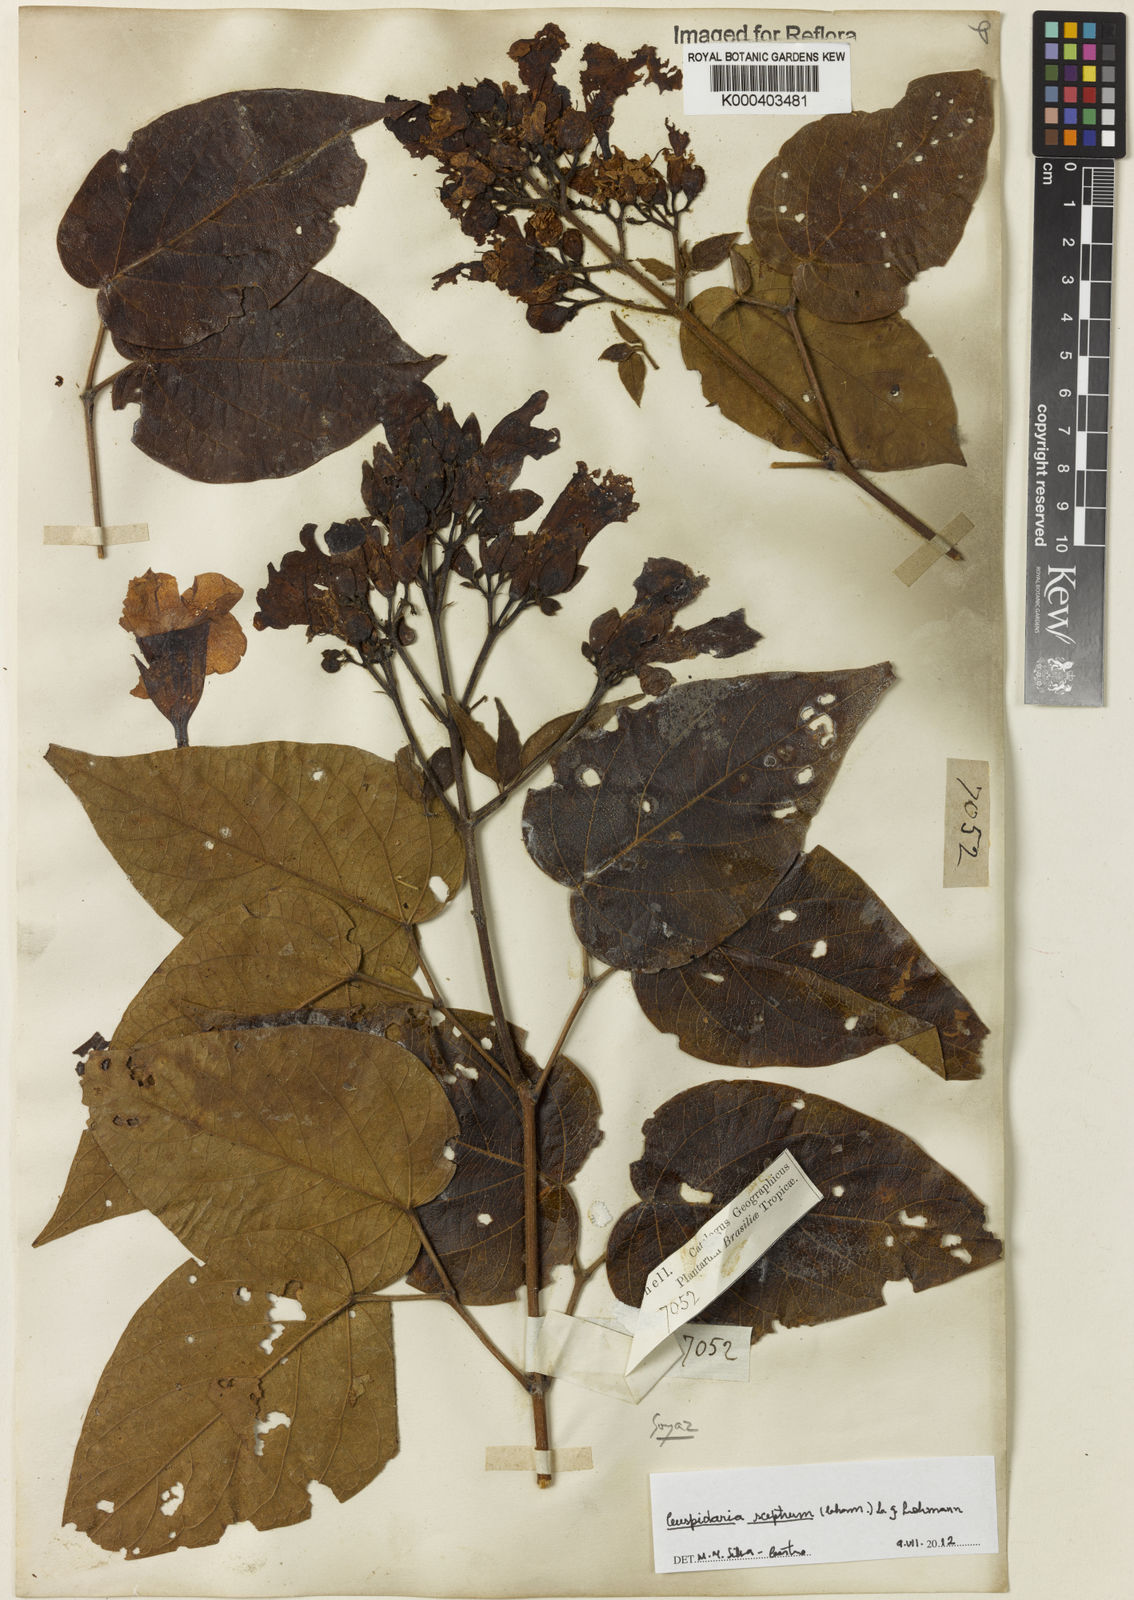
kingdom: Plantae
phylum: Tracheophyta
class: Magnoliopsida
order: Lamiales
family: Bignoniaceae
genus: Cuspidaria
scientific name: Cuspidaria sceptrum
